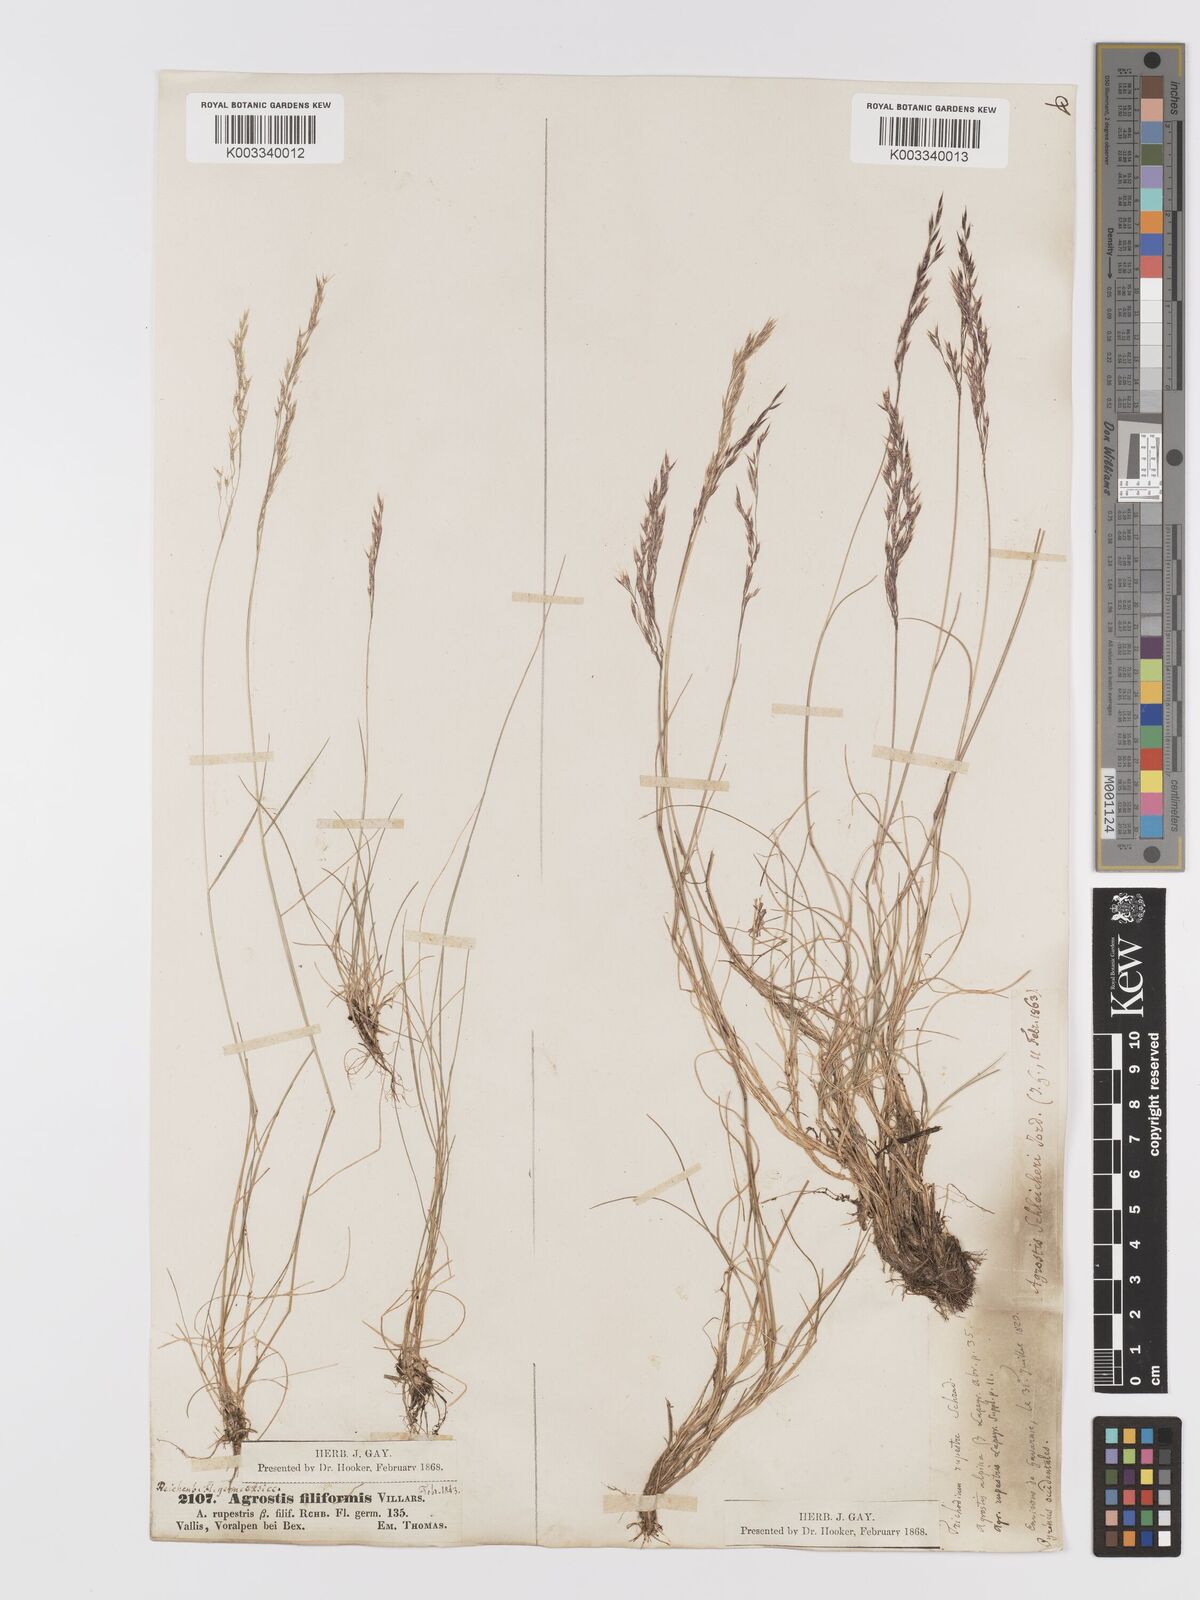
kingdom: Plantae
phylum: Tracheophyta
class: Liliopsida
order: Poales
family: Poaceae
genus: Alpagrostis
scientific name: Alpagrostis schleicheri
